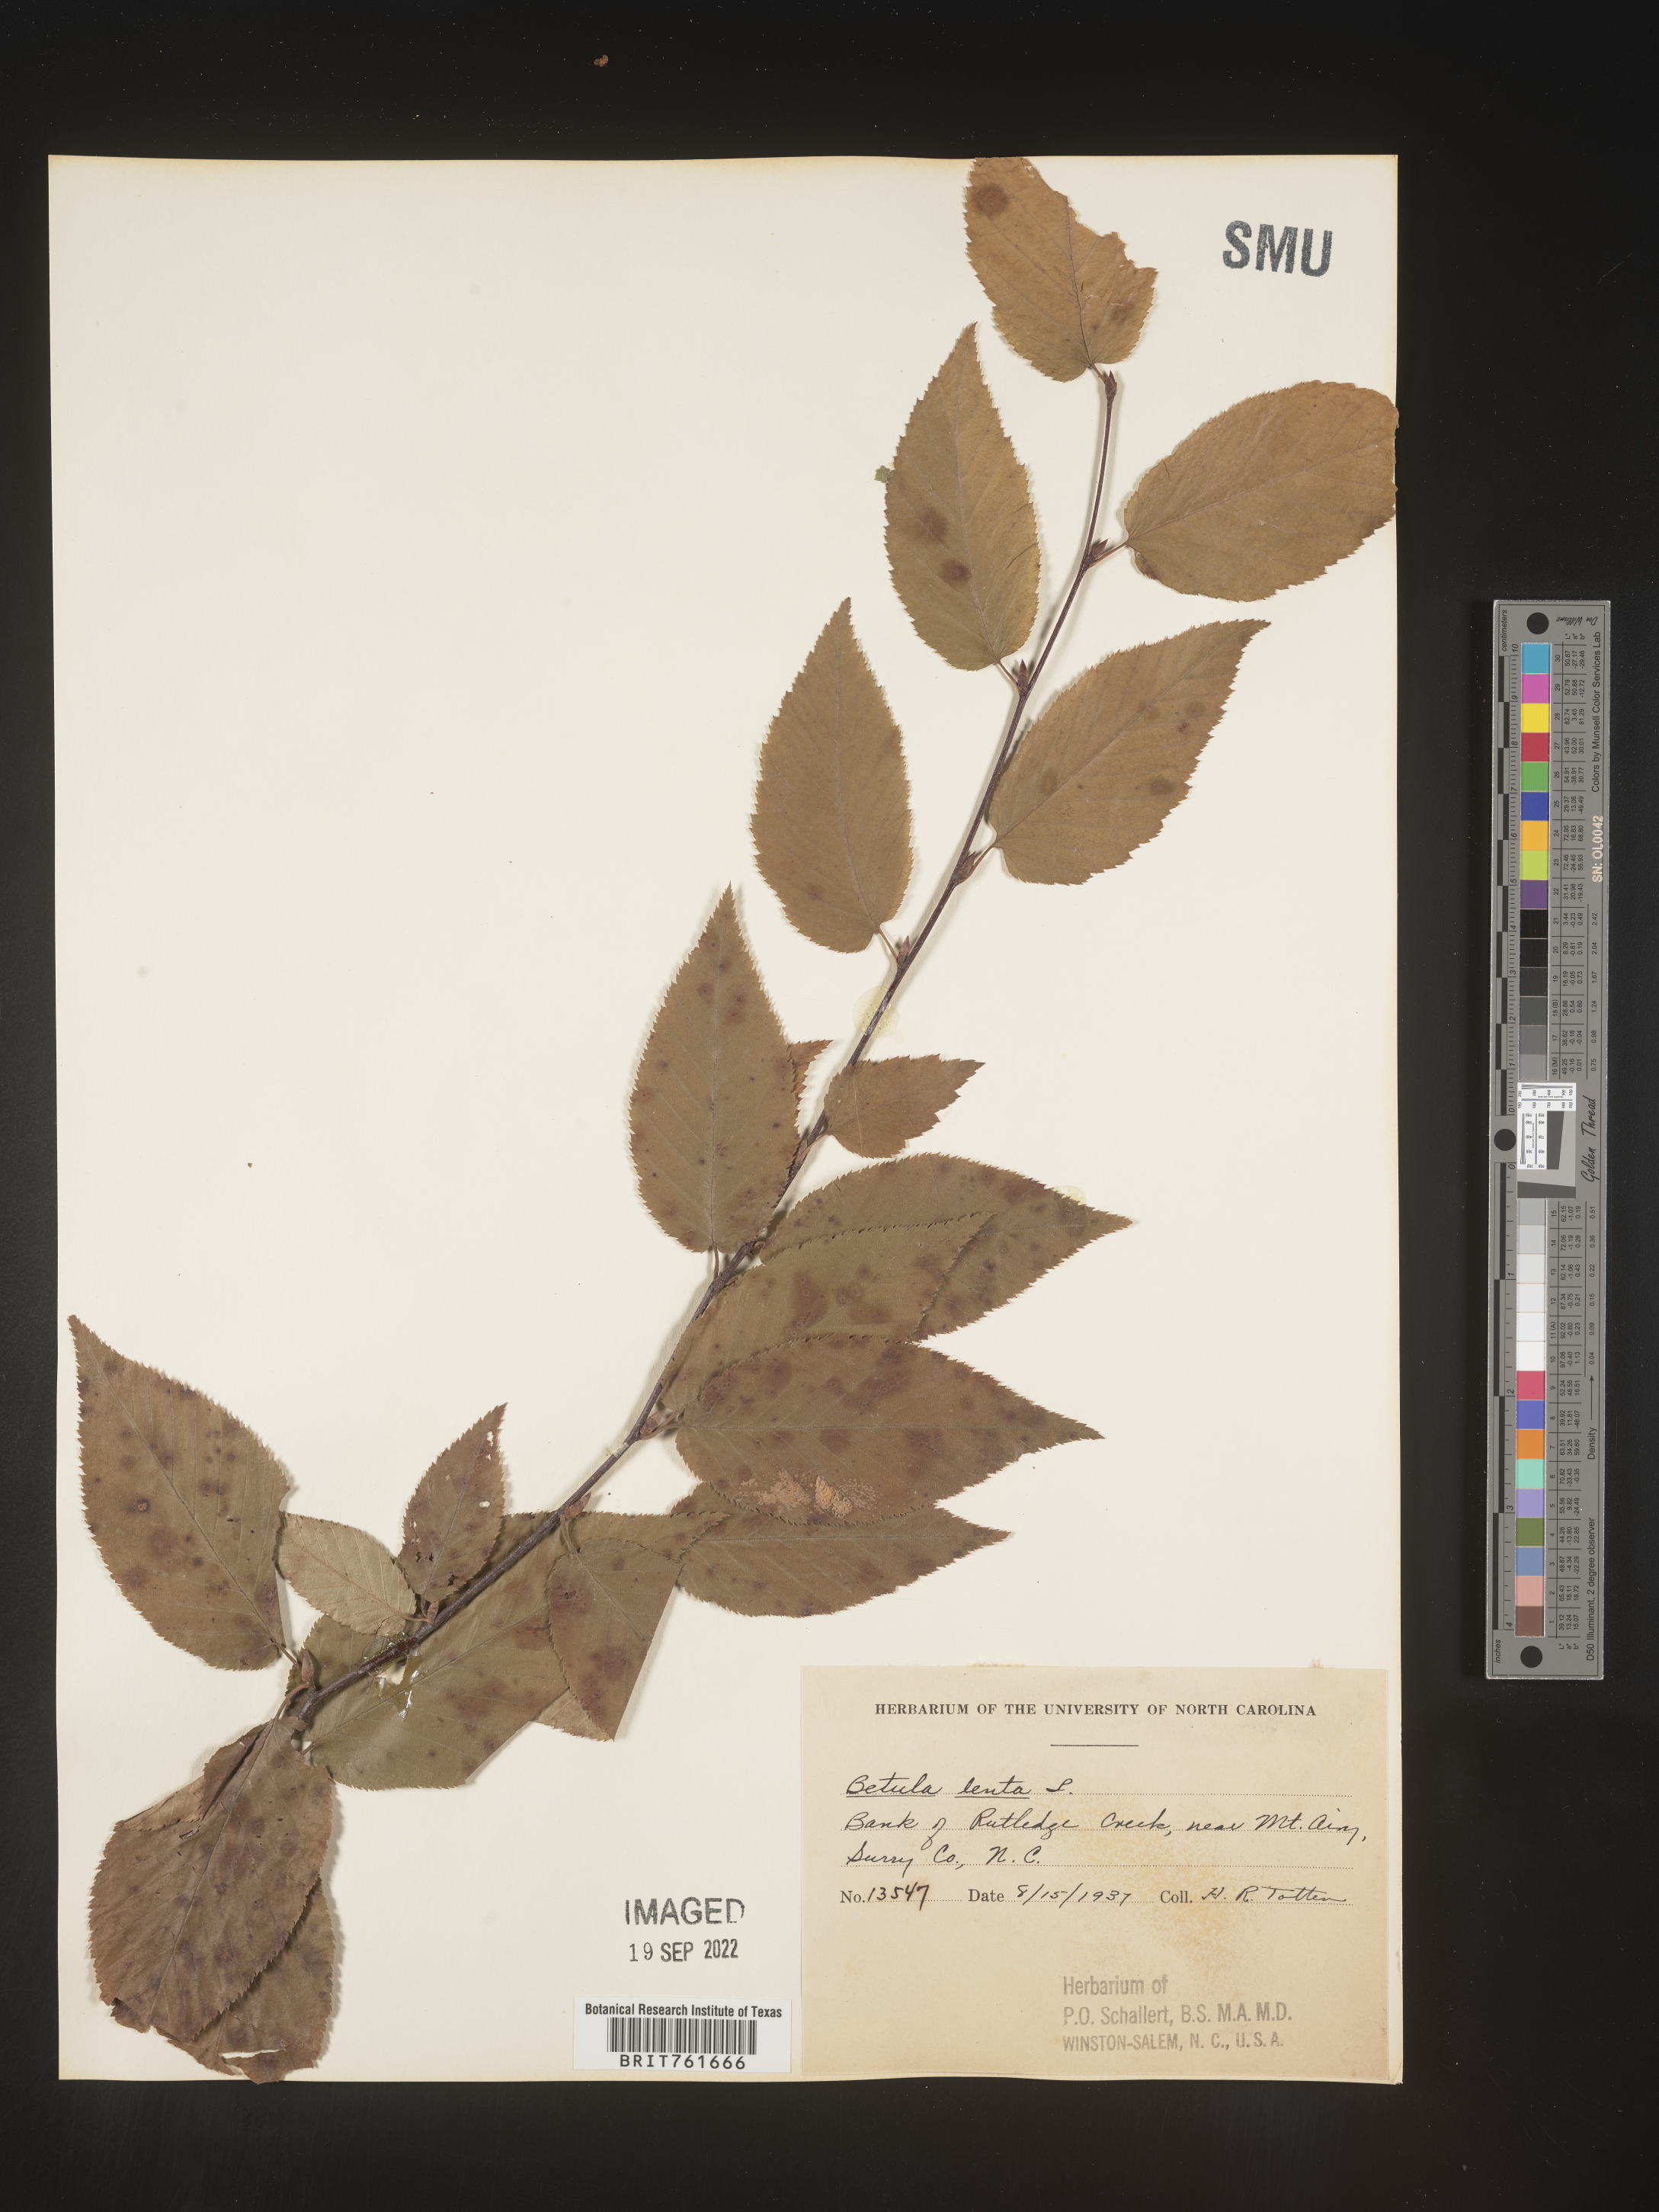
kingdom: Plantae
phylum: Tracheophyta
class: Magnoliopsida
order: Fagales
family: Betulaceae
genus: Betula
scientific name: Betula lenta
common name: Black birch
